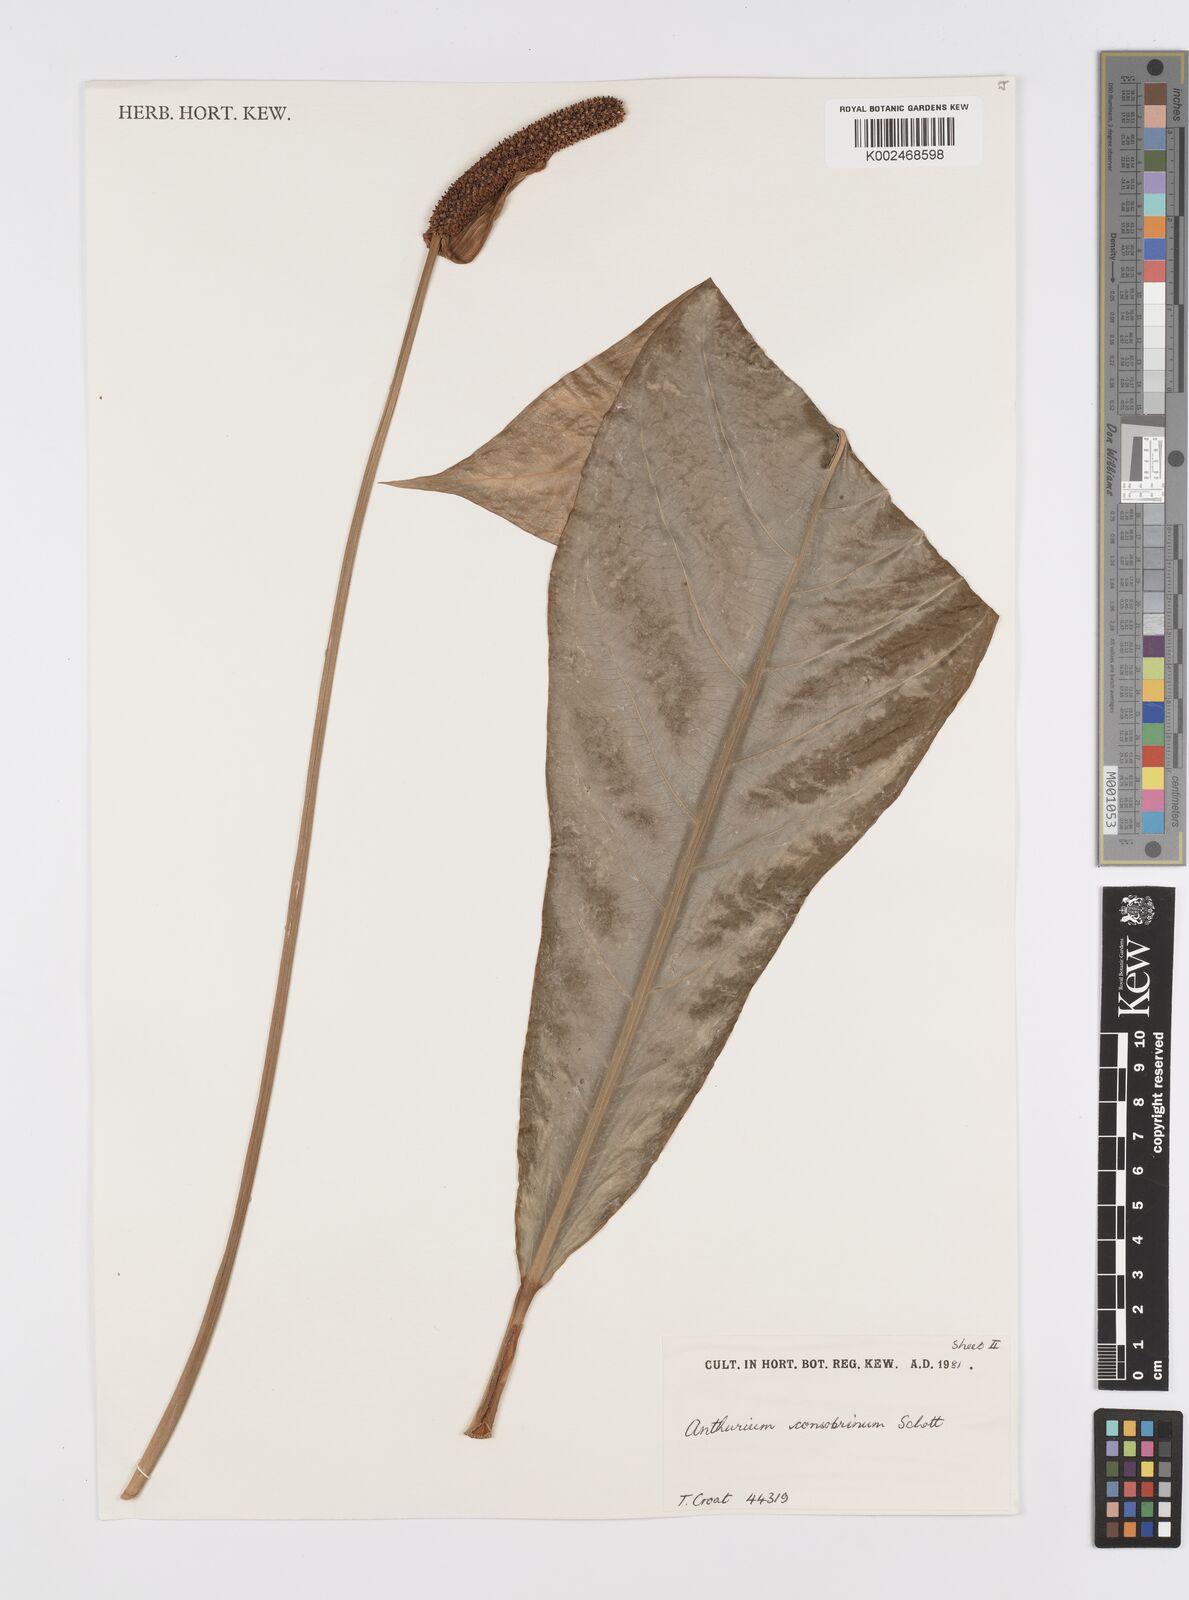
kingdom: Plantae
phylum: Tracheophyta
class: Liliopsida
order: Alismatales
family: Araceae
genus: Anthurium
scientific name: Anthurium consobrinum
